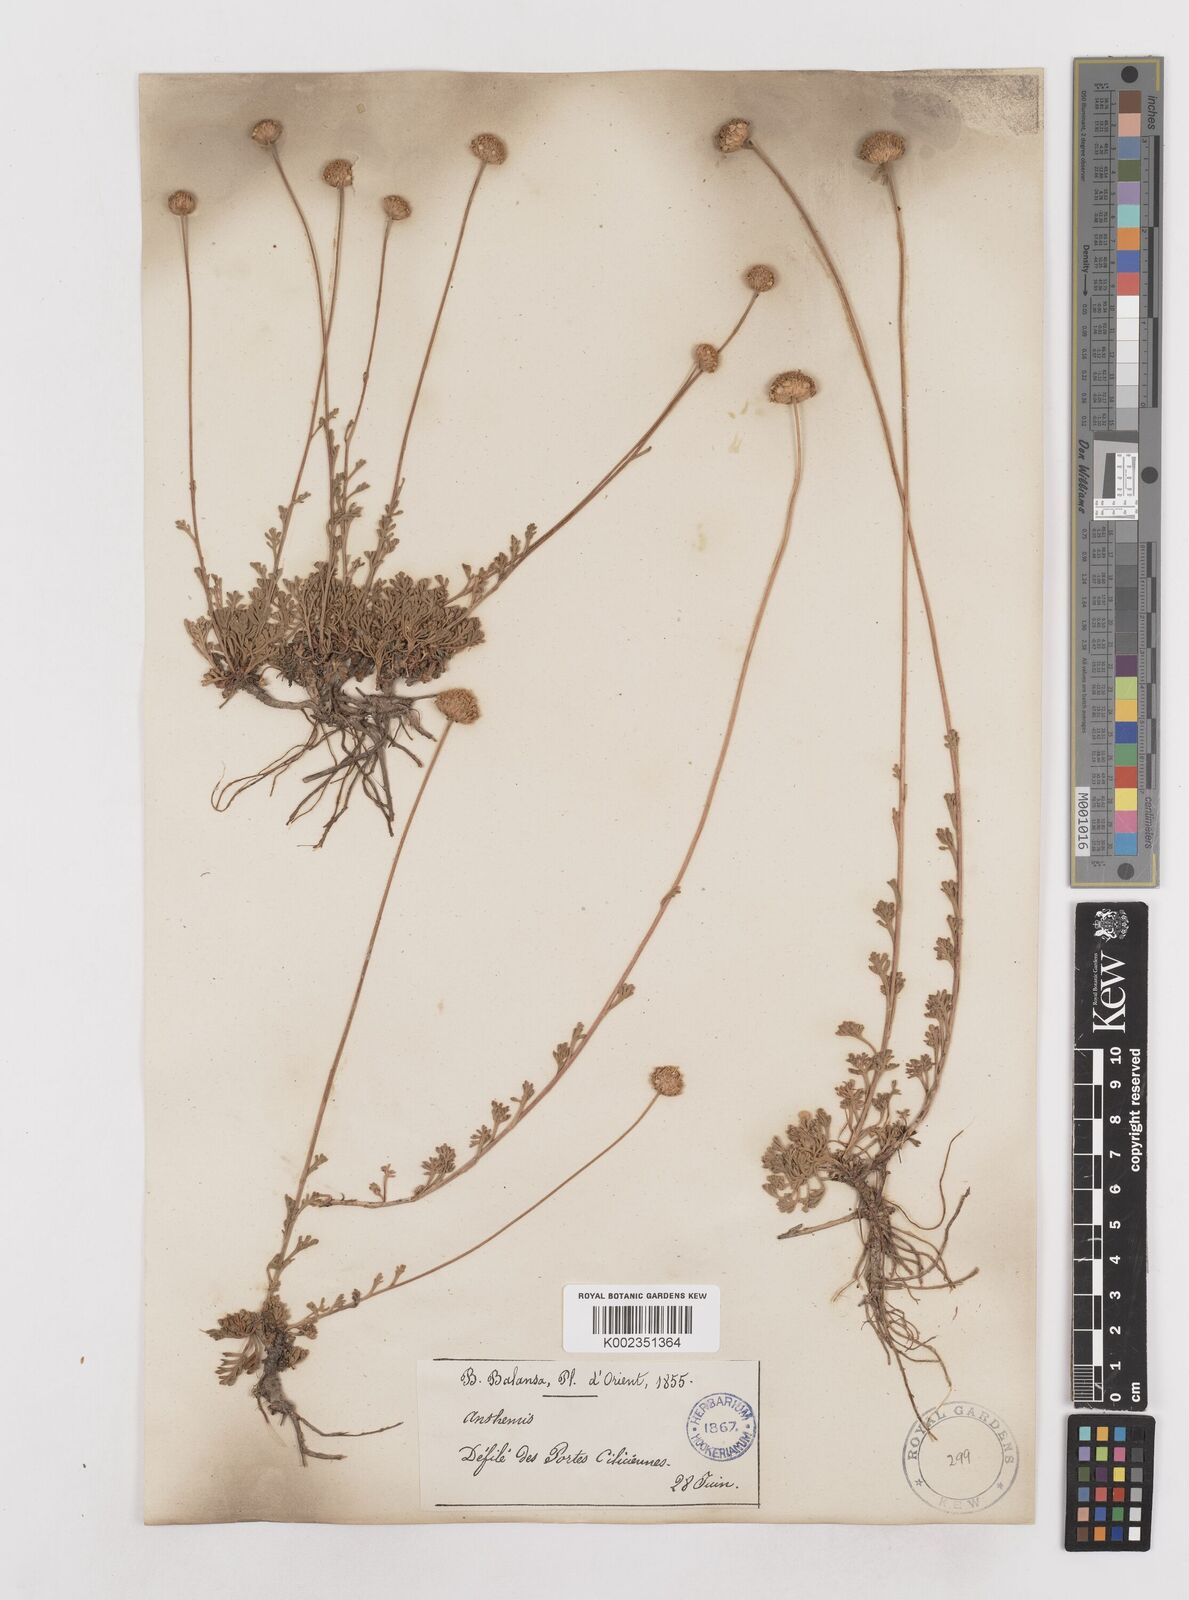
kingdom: Plantae
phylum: Tracheophyta
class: Magnoliopsida
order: Asterales
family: Asteraceae
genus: Anthemis
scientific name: Anthemis kotschyana
